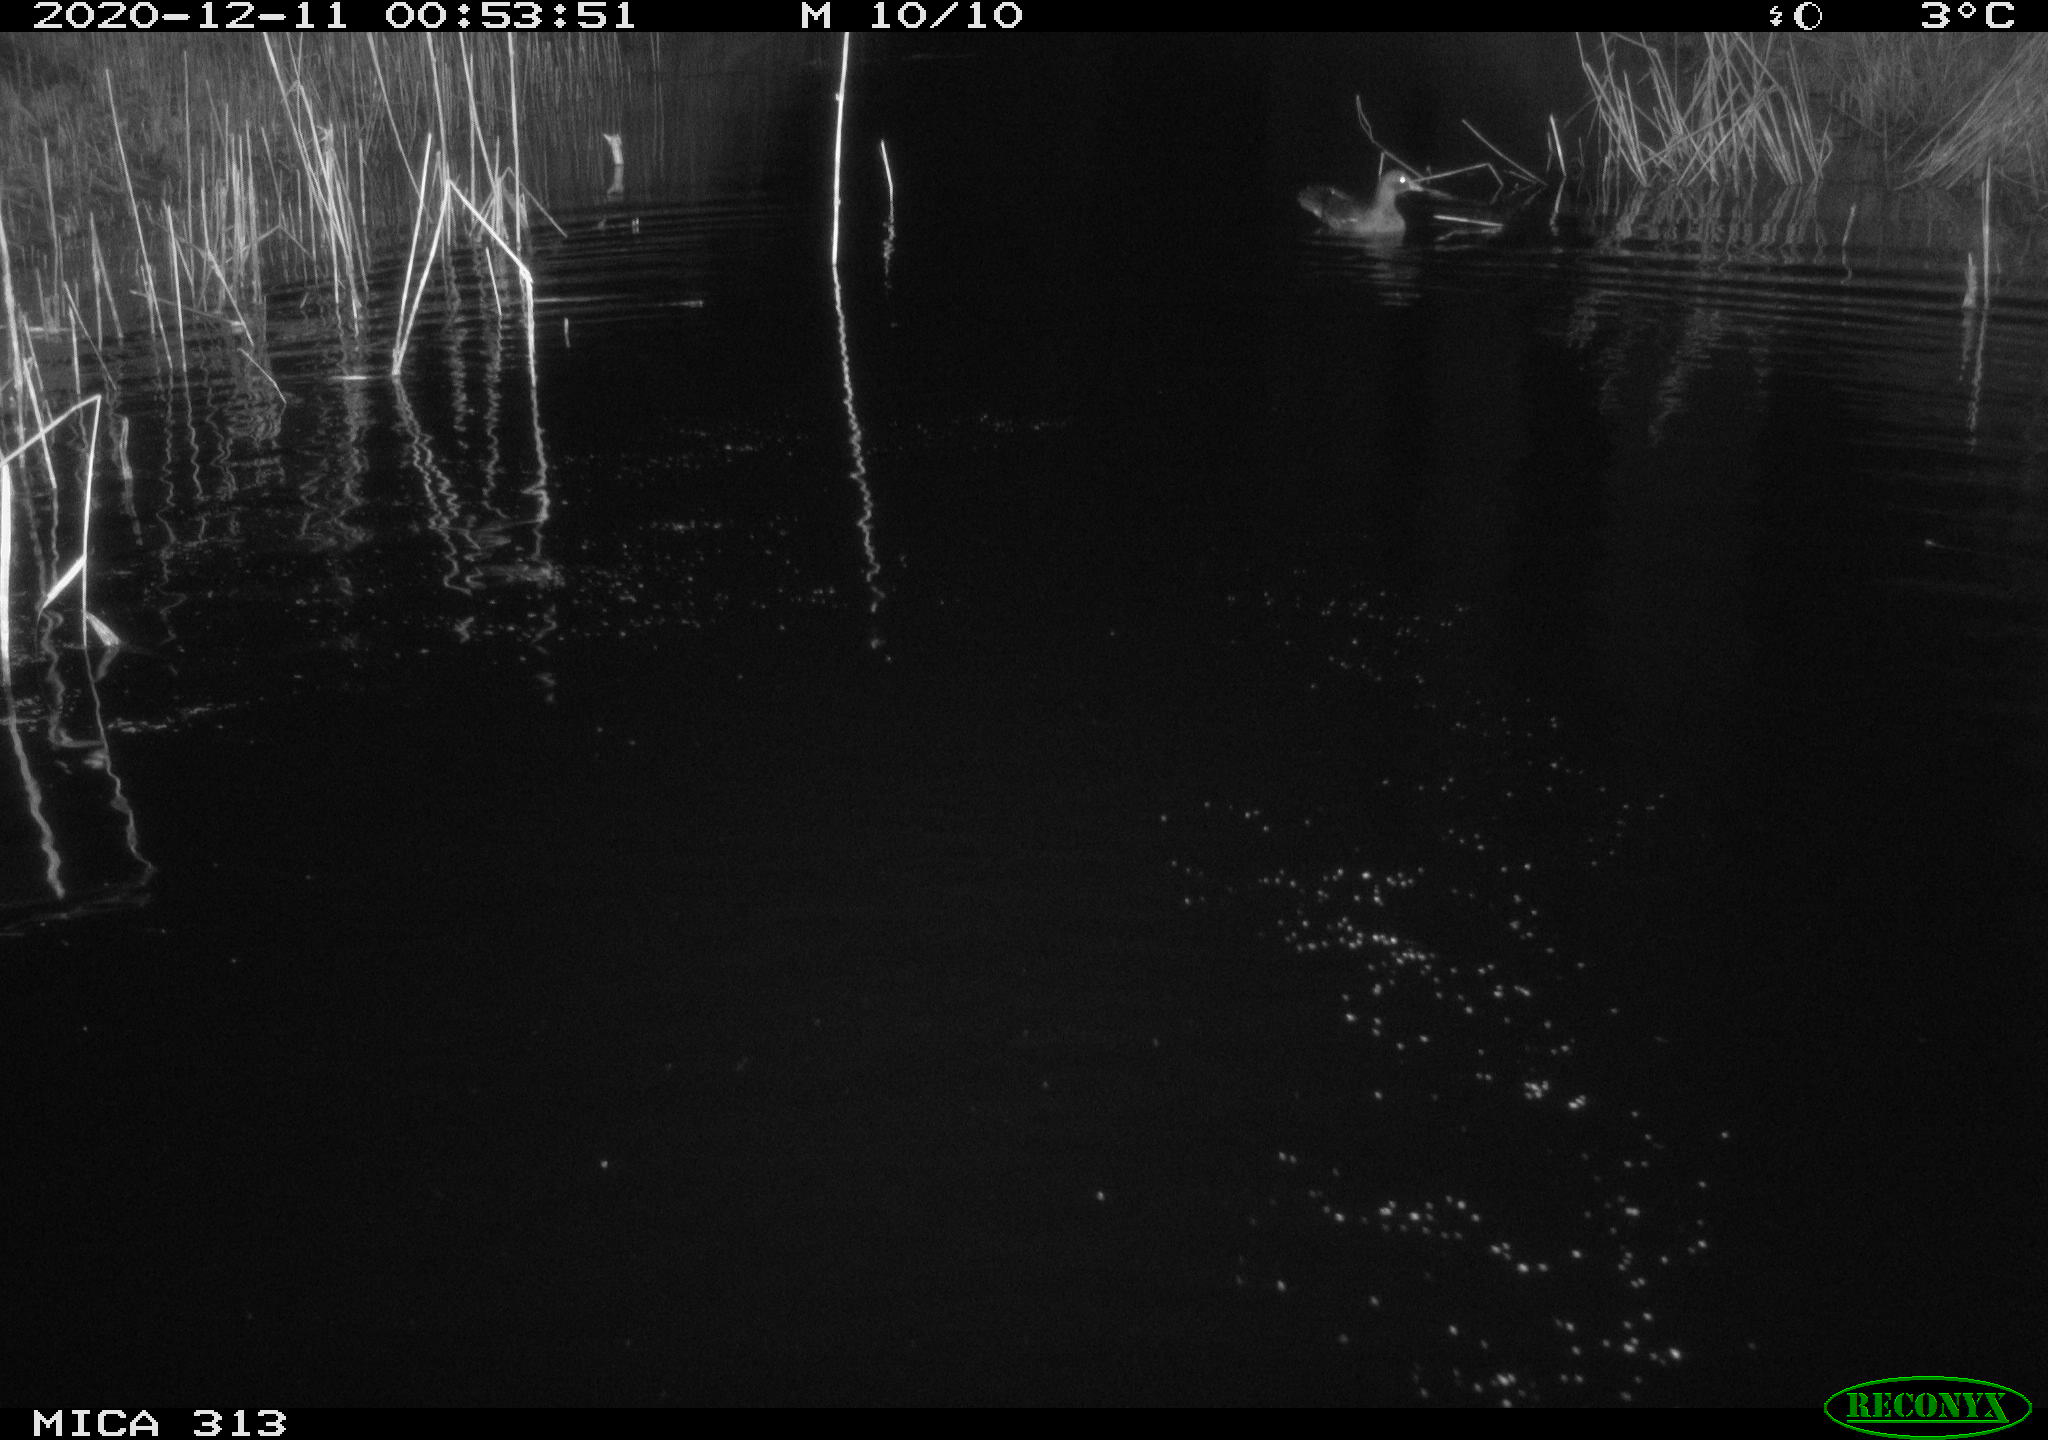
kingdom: Animalia
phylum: Chordata
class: Aves
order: Gruiformes
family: Rallidae
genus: Gallinula
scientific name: Gallinula chloropus
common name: Common moorhen
